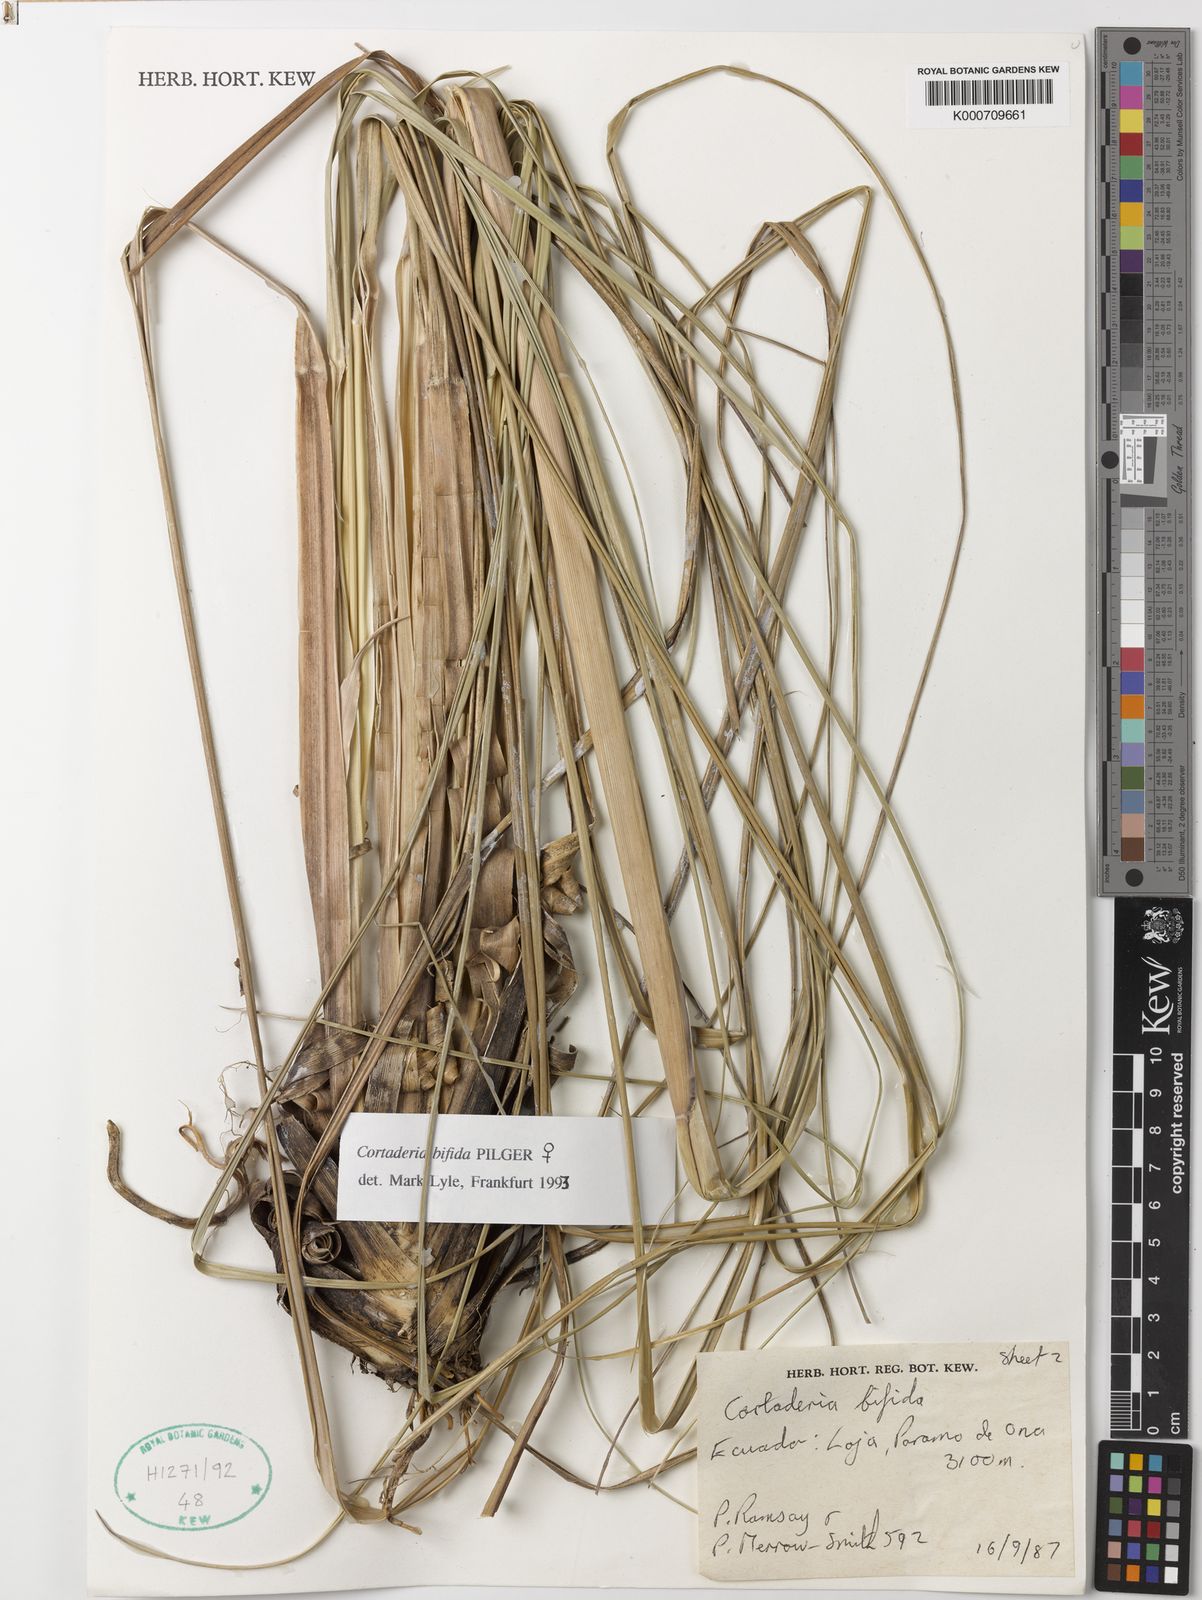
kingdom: Plantae
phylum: Tracheophyta
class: Liliopsida
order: Poales
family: Poaceae
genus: Cortaderia
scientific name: Cortaderia
